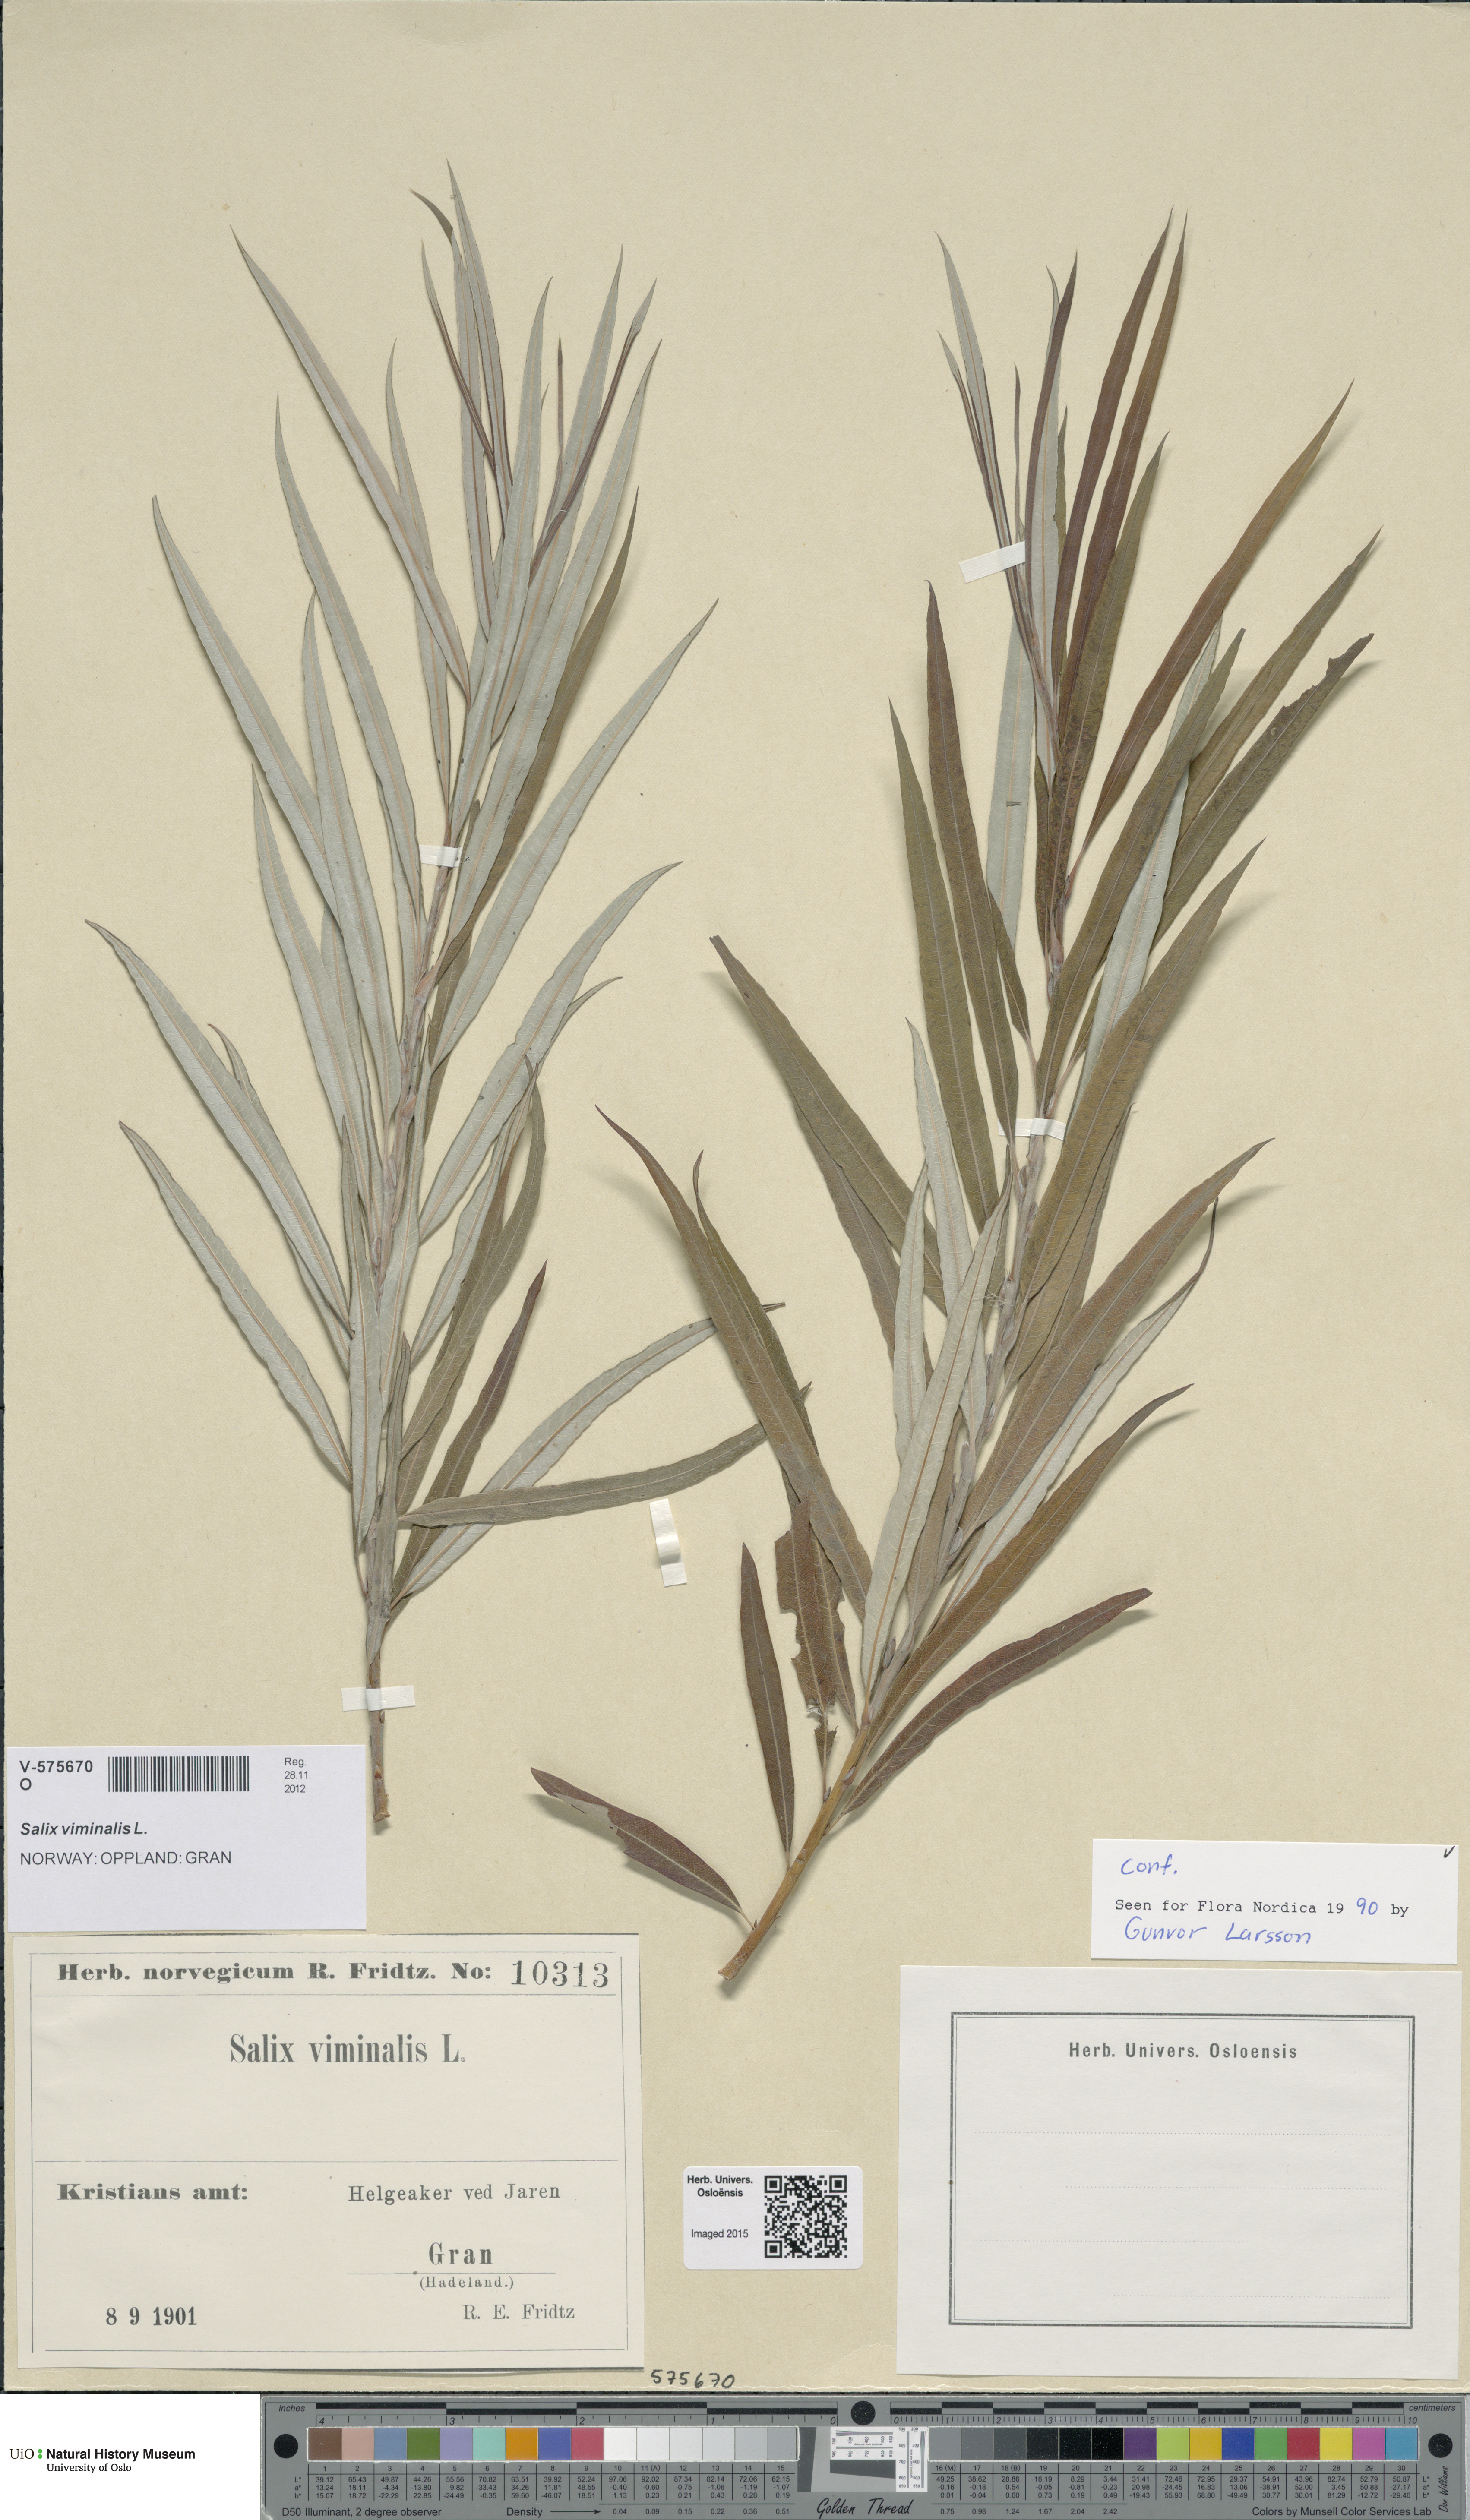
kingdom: Plantae
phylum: Tracheophyta
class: Magnoliopsida
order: Malpighiales
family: Salicaceae
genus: Salix
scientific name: Salix viminalis
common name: Osier
